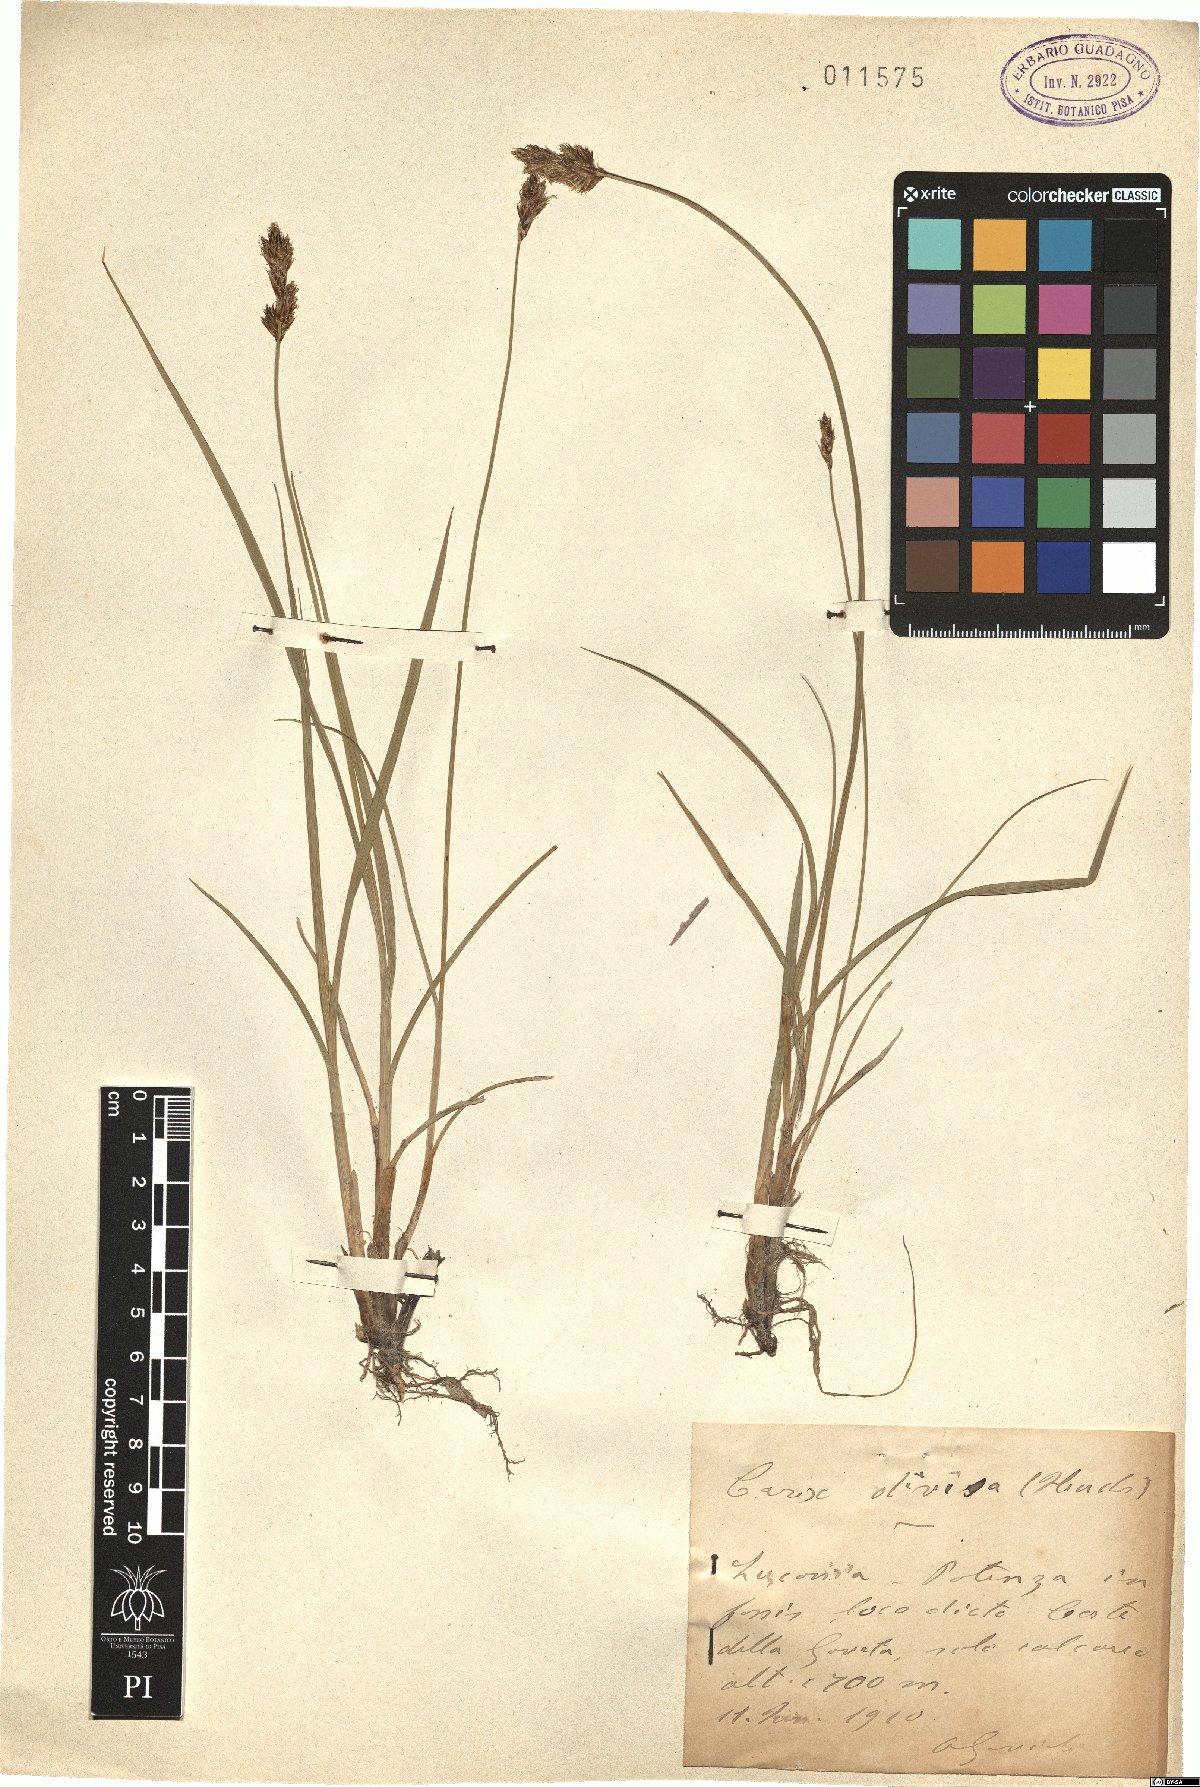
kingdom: Plantae
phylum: Tracheophyta
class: Liliopsida
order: Poales
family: Cyperaceae
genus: Carex
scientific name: Carex divisa
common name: Divided sedge
